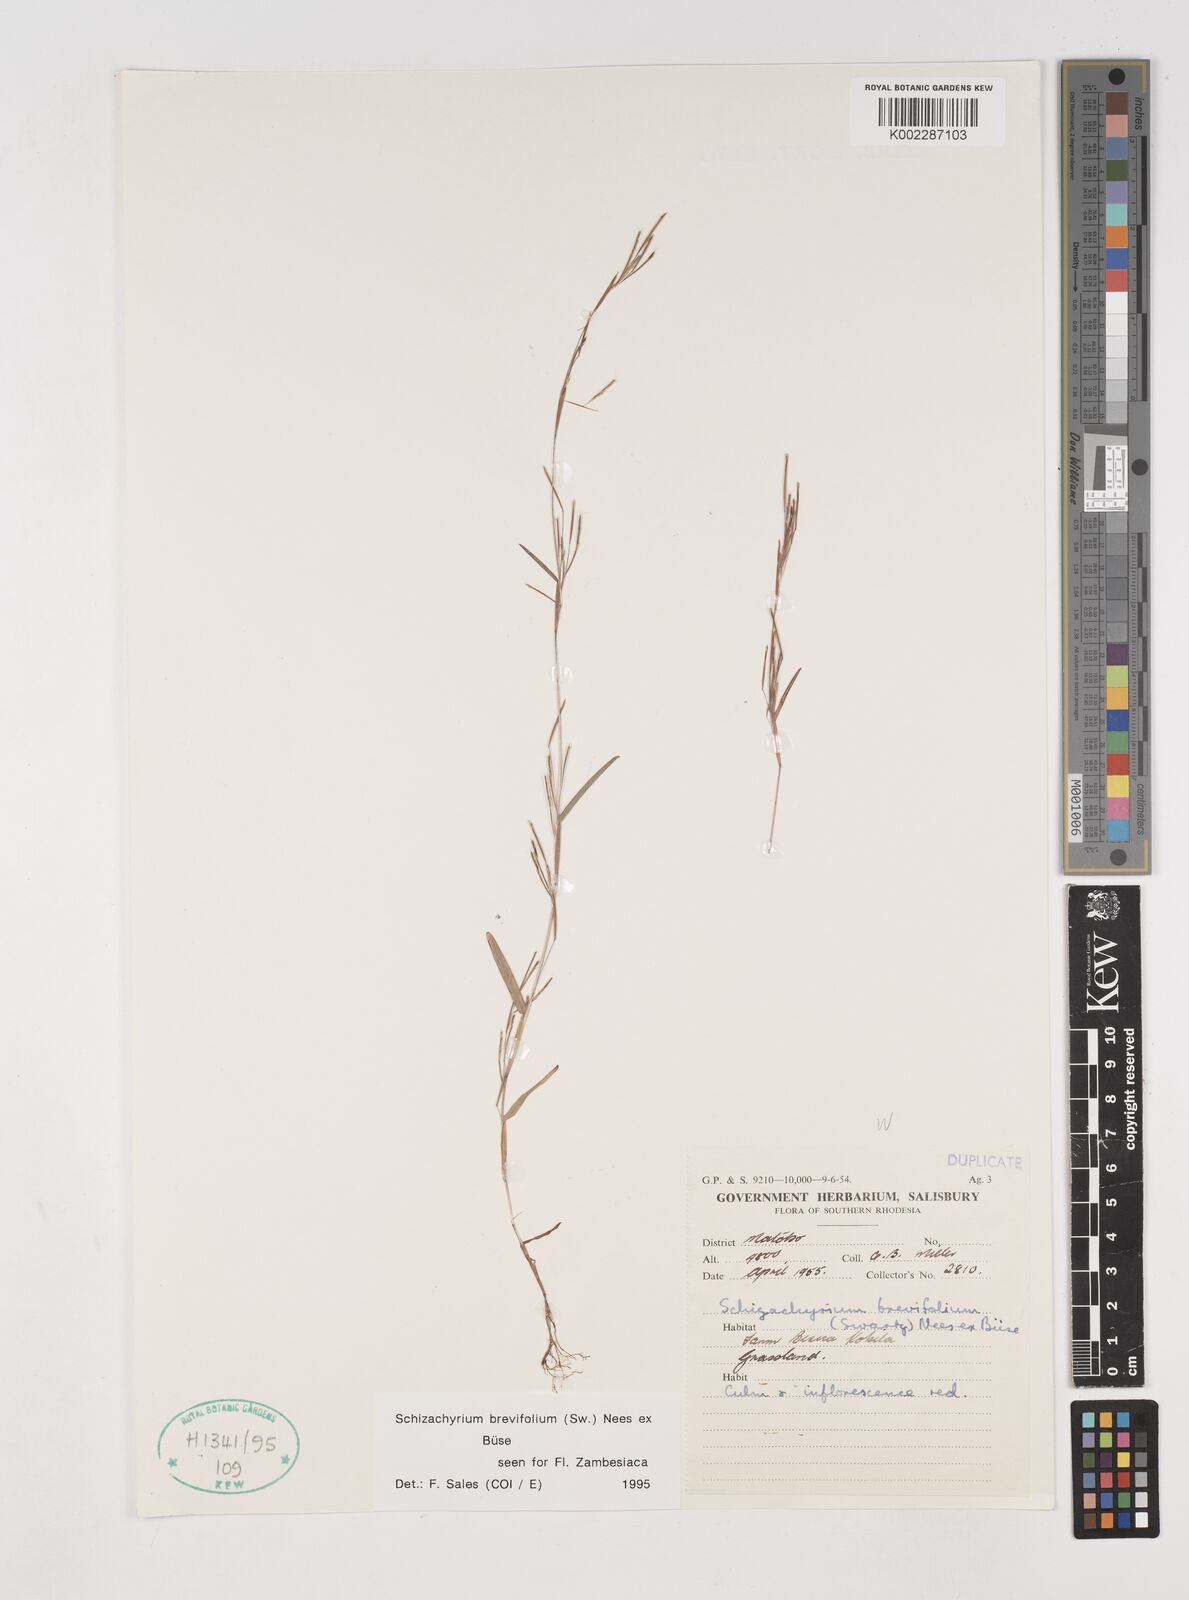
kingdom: Plantae
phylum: Tracheophyta
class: Liliopsida
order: Poales
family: Poaceae
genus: Schizachyrium
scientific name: Schizachyrium brevifolium
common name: Serillo dulce
